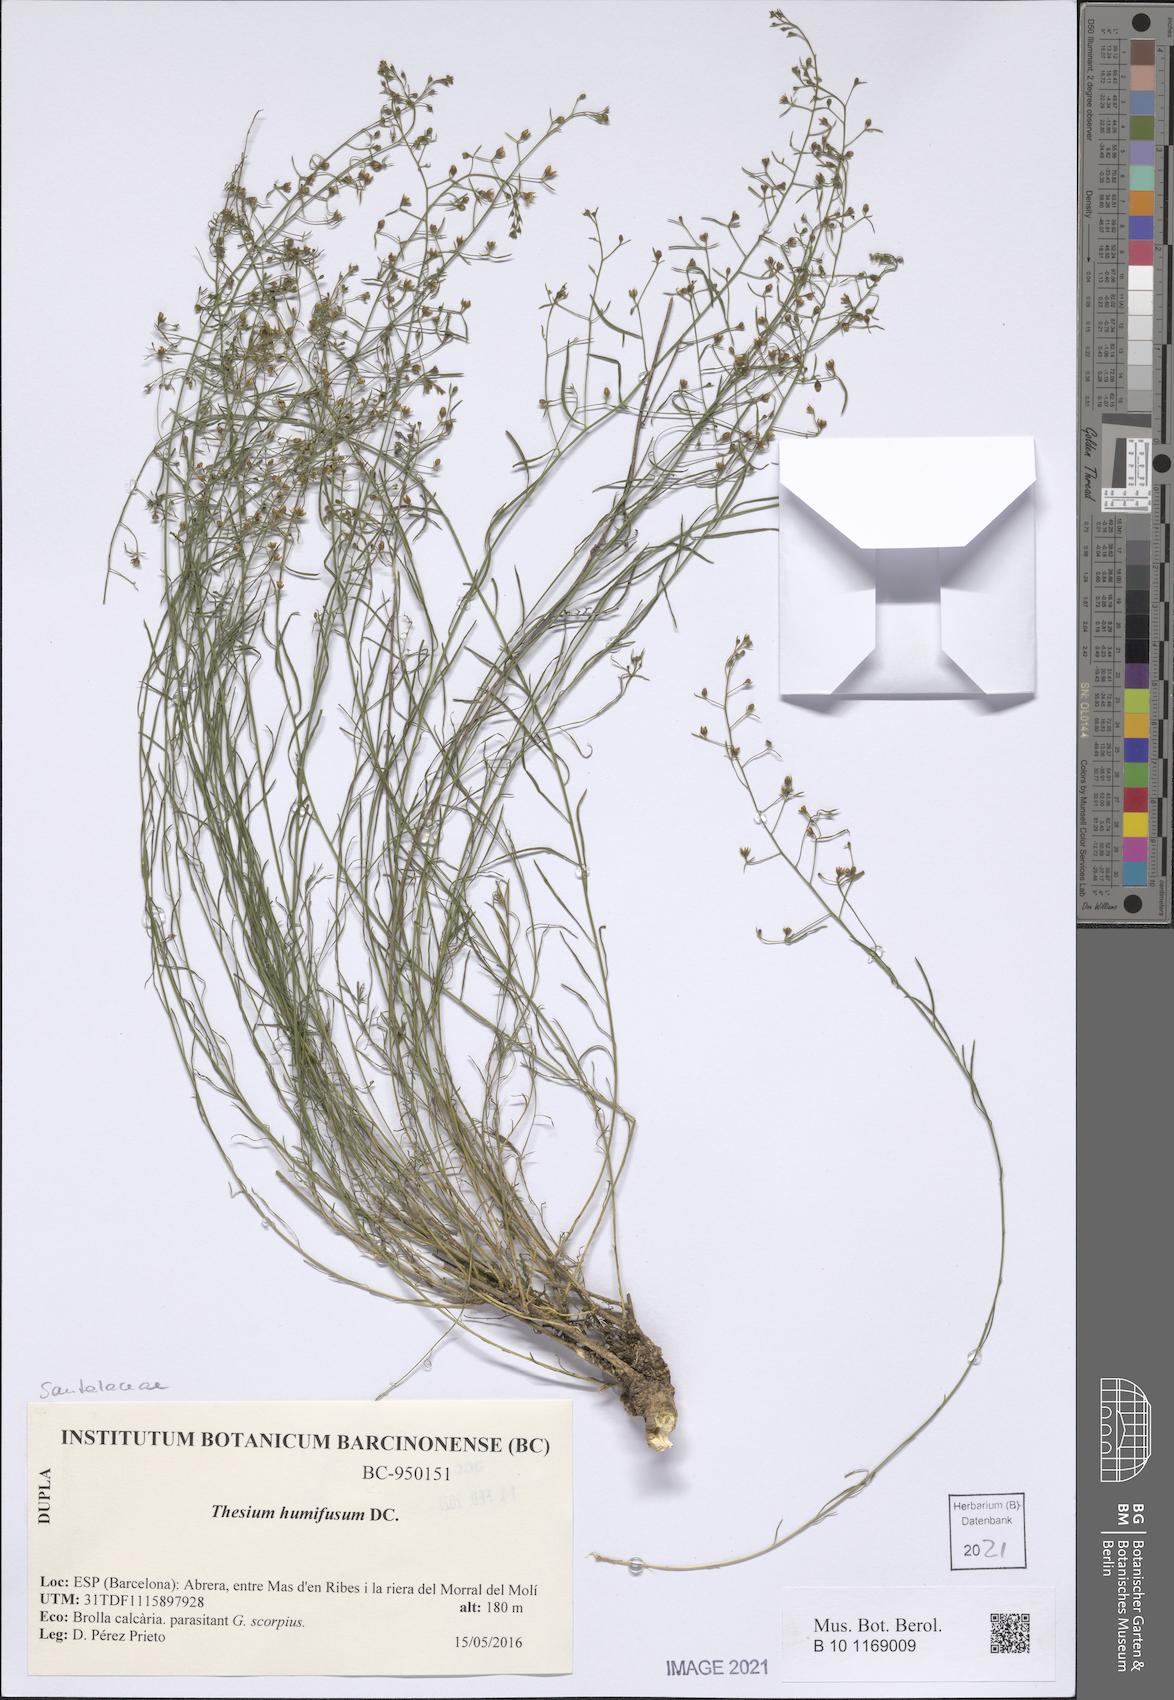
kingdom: Plantae
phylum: Tracheophyta
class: Magnoliopsida
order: Santalales
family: Thesiaceae
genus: Thesium
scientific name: Thesium humifusum
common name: Bastard-toadflax
